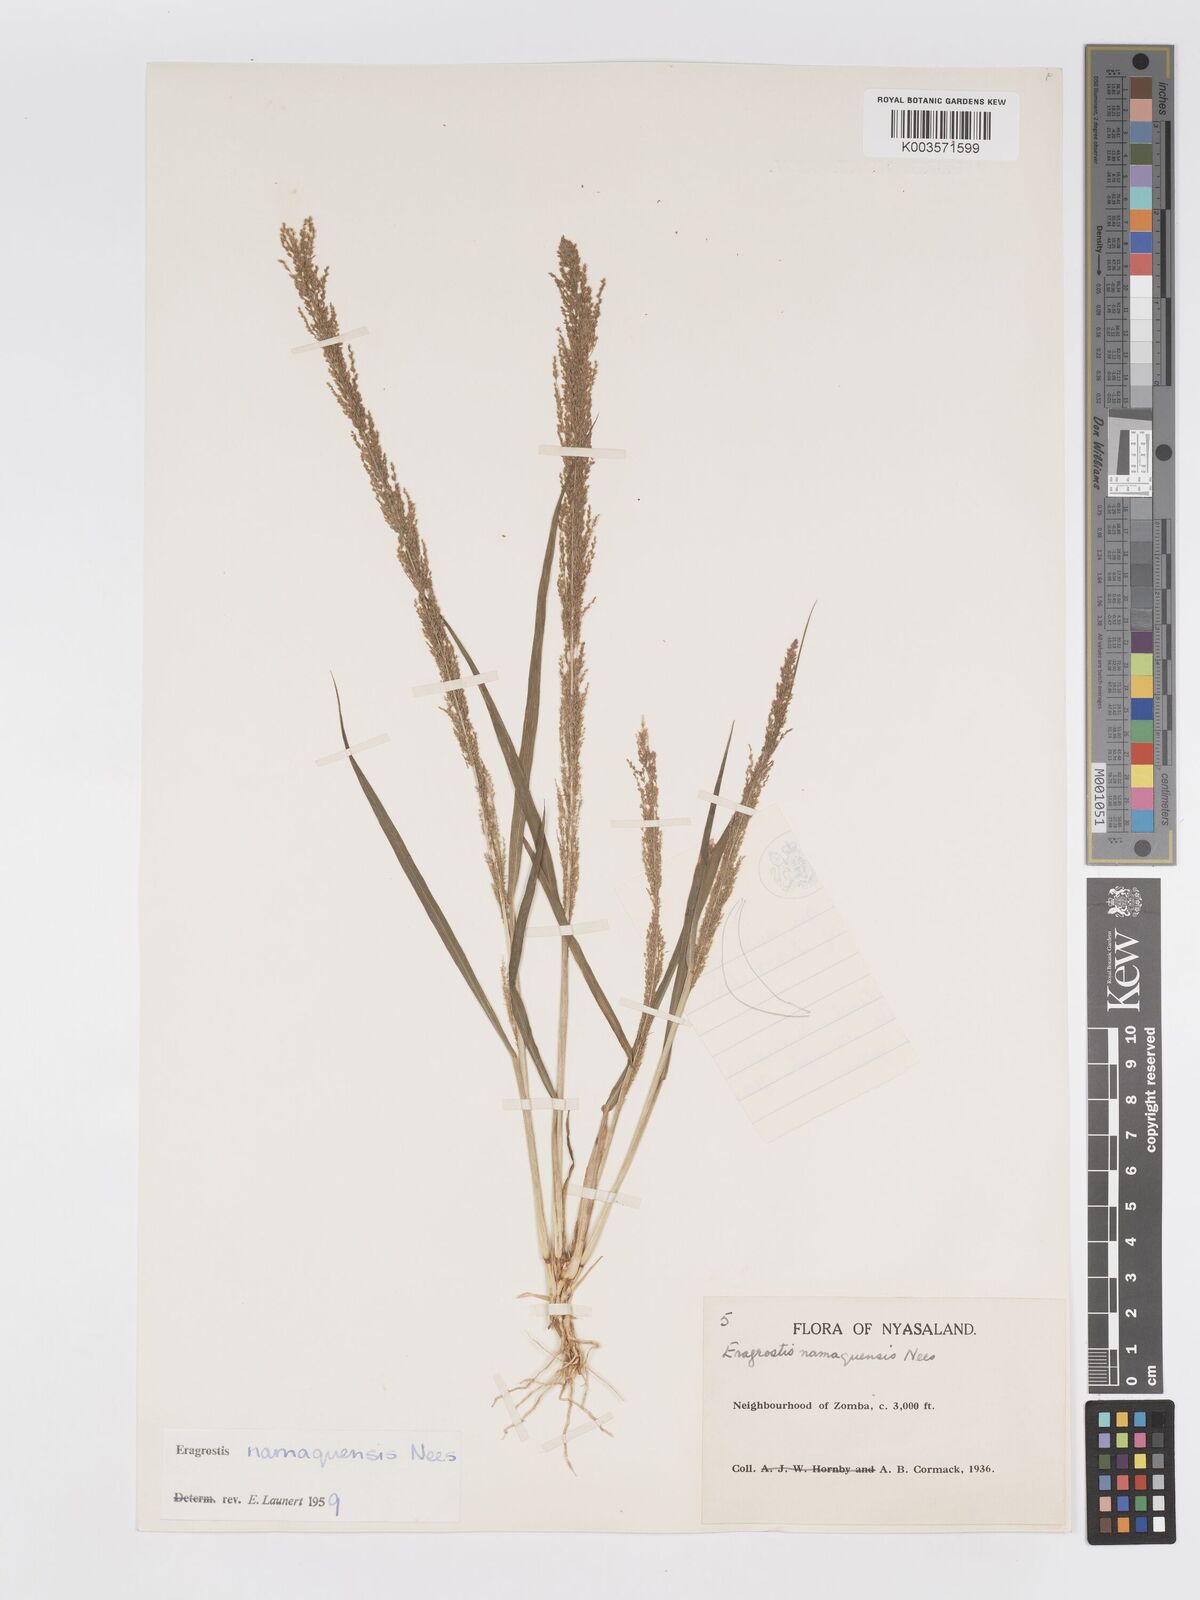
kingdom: Plantae
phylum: Tracheophyta
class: Liliopsida
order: Poales
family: Poaceae
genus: Eragrostis
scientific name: Eragrostis japonica
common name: Pond lovegrass
